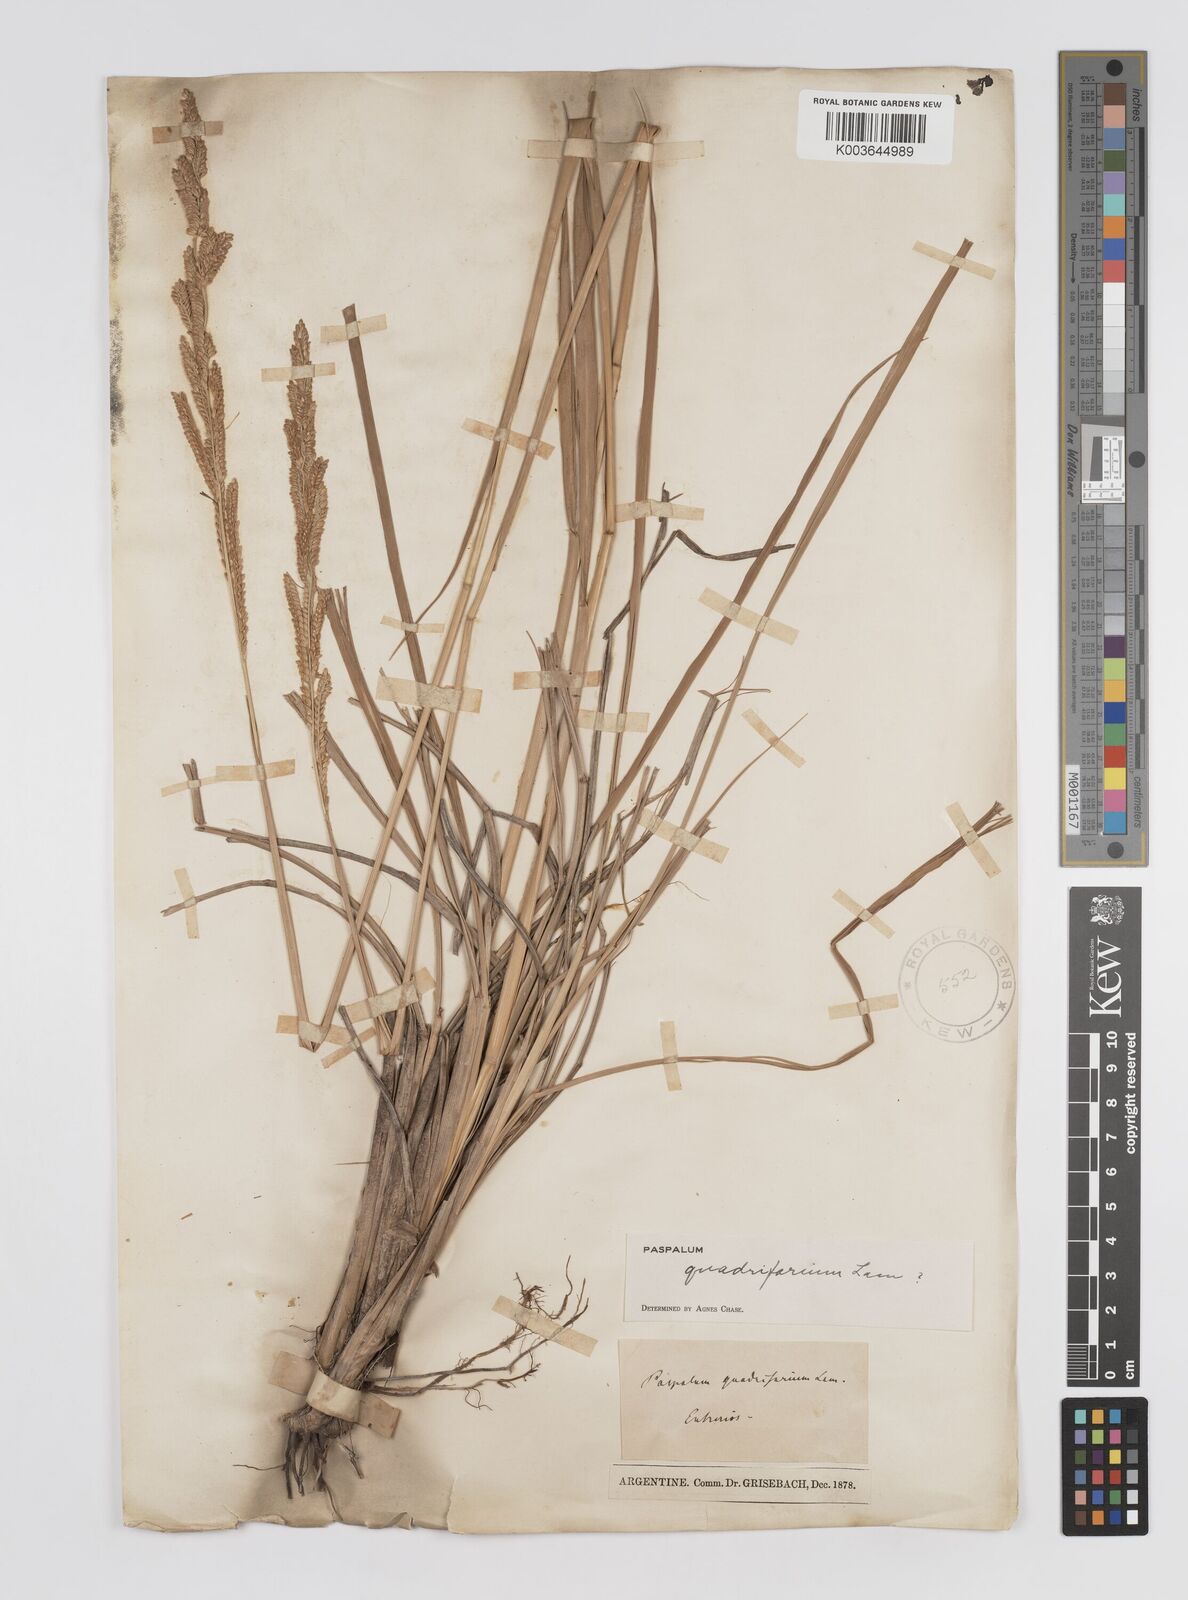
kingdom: Plantae
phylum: Tracheophyta
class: Liliopsida
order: Poales
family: Poaceae
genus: Paspalum
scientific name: Paspalum quadrifarium
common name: Tussock paspalum
